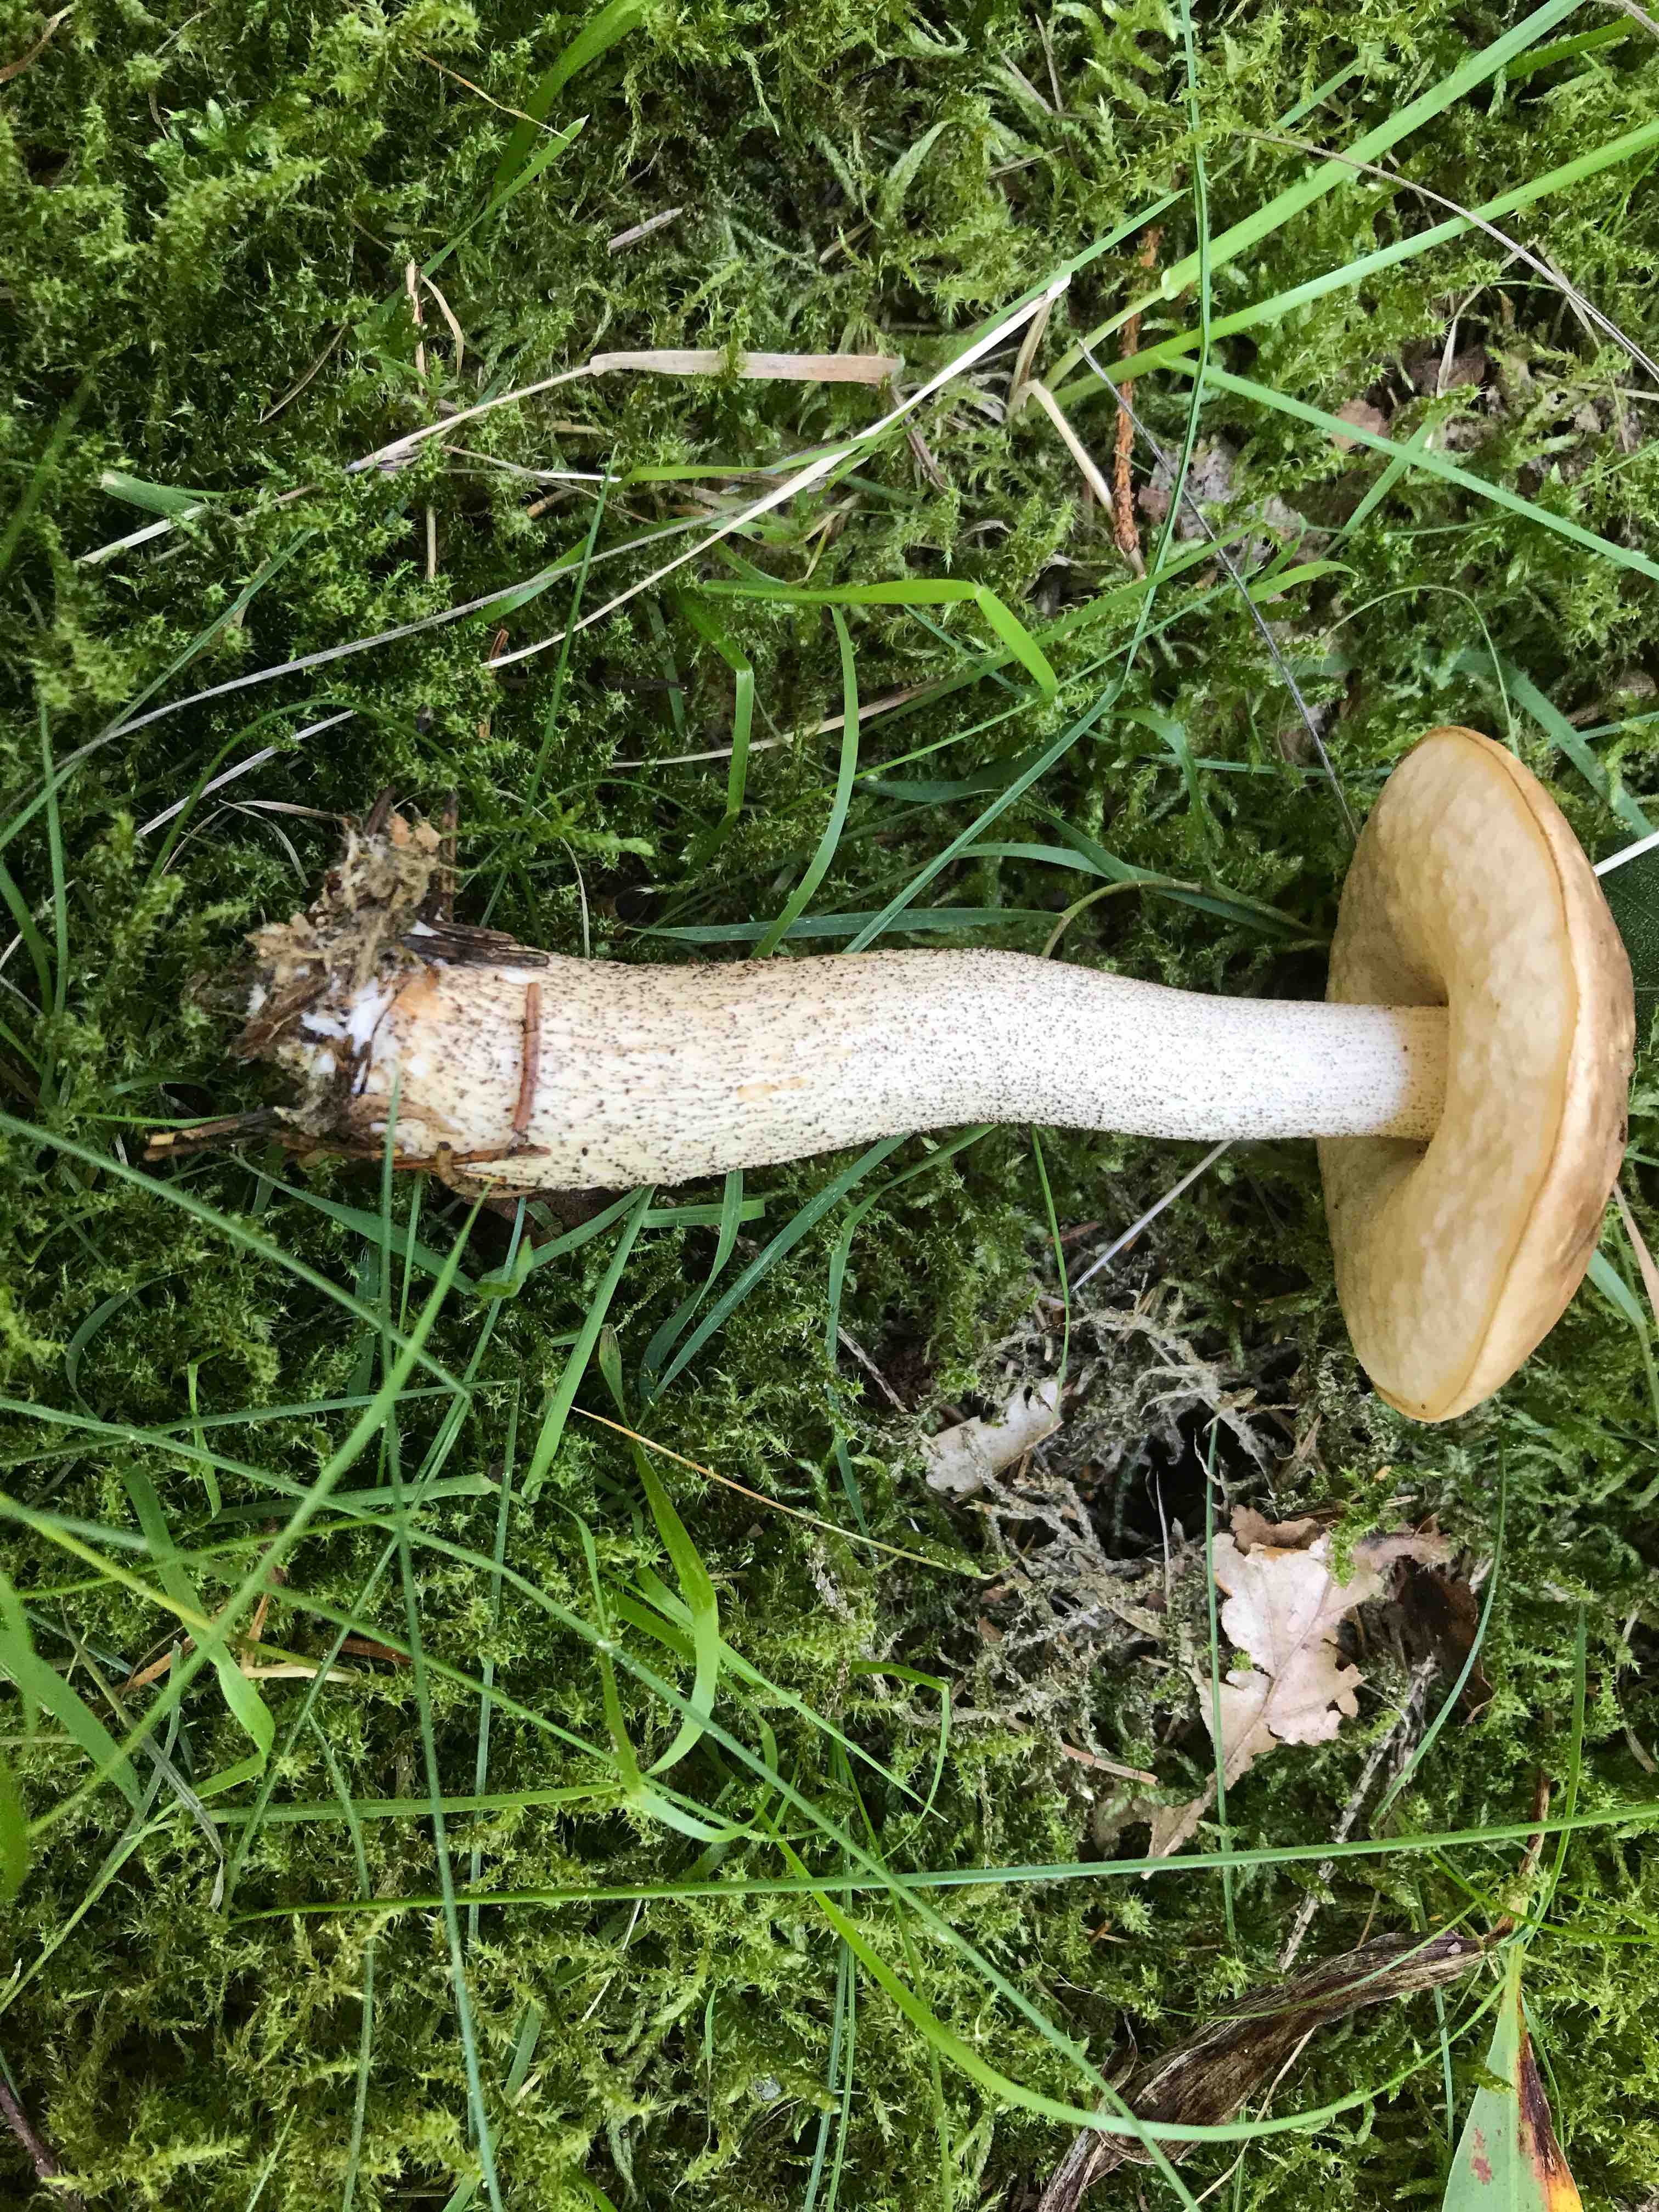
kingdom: Fungi
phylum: Basidiomycota
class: Agaricomycetes
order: Boletales
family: Boletaceae
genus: Leccinum
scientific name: Leccinum
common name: skælrørhat
